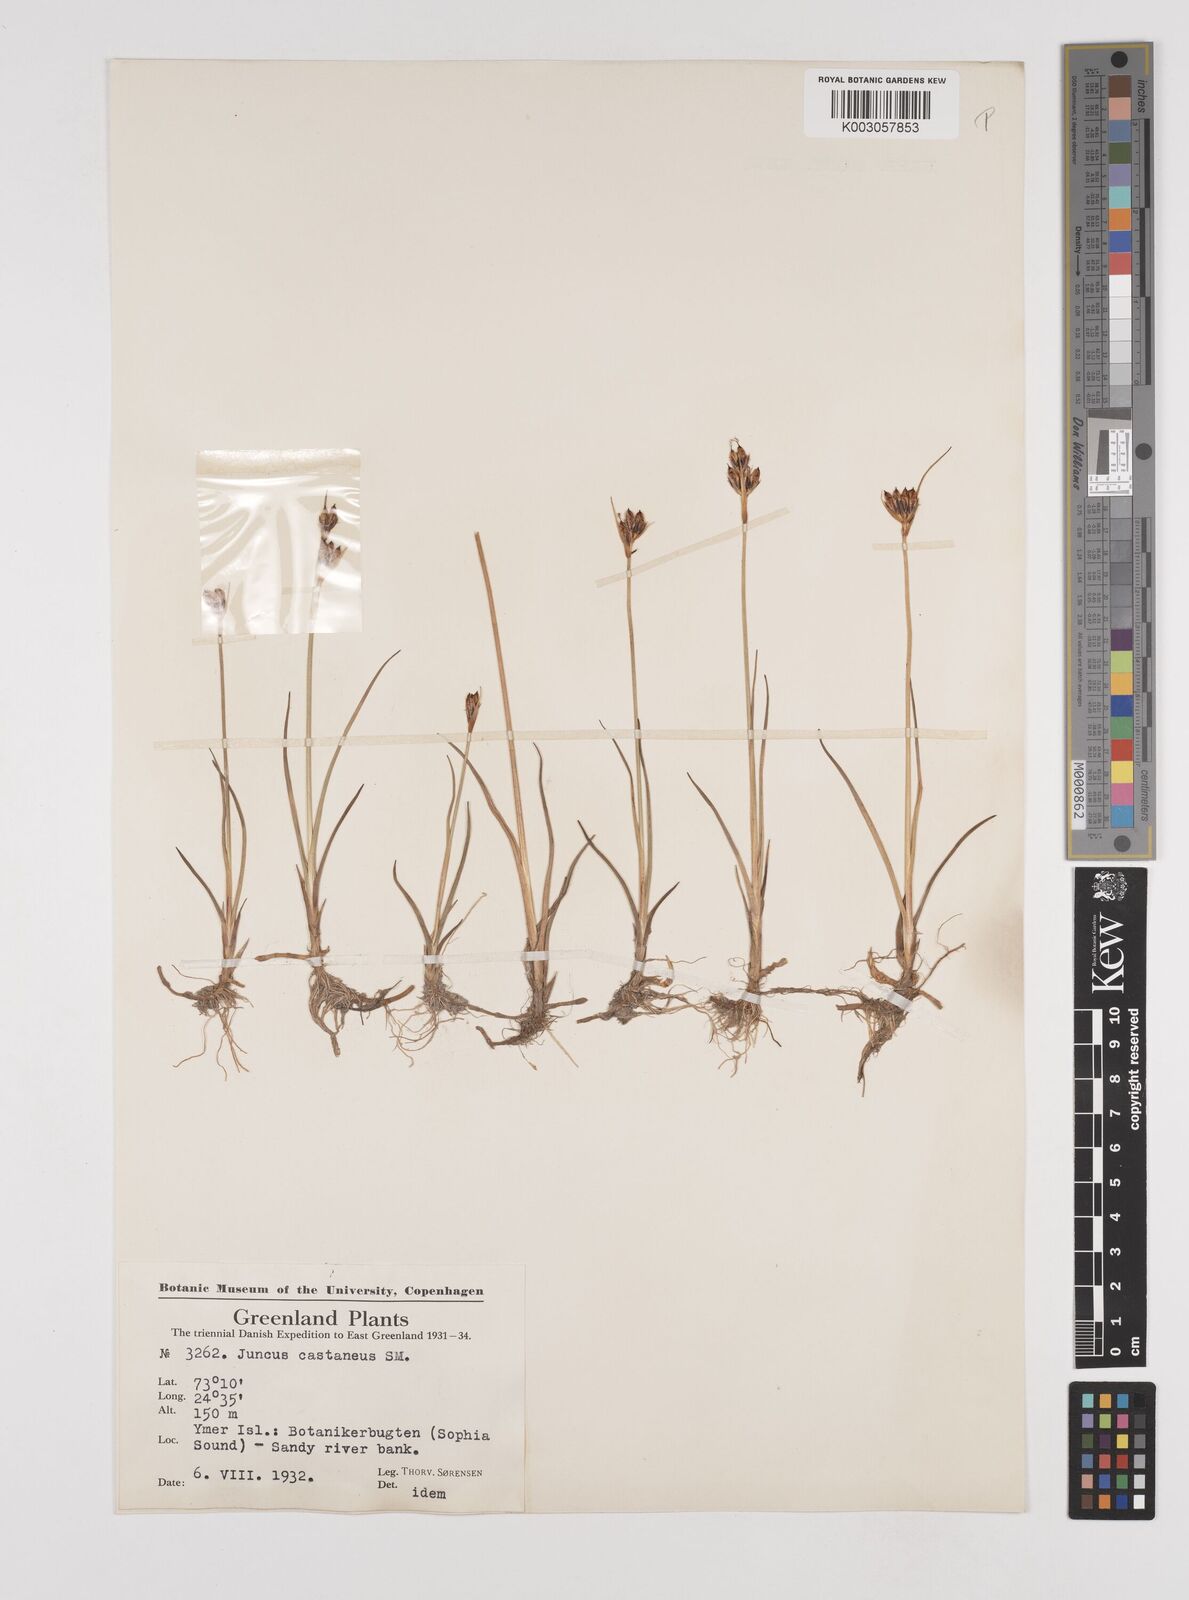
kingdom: Plantae
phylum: Tracheophyta
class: Liliopsida
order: Poales
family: Juncaceae
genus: Juncus
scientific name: Juncus castaneus
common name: Chestnut rush
